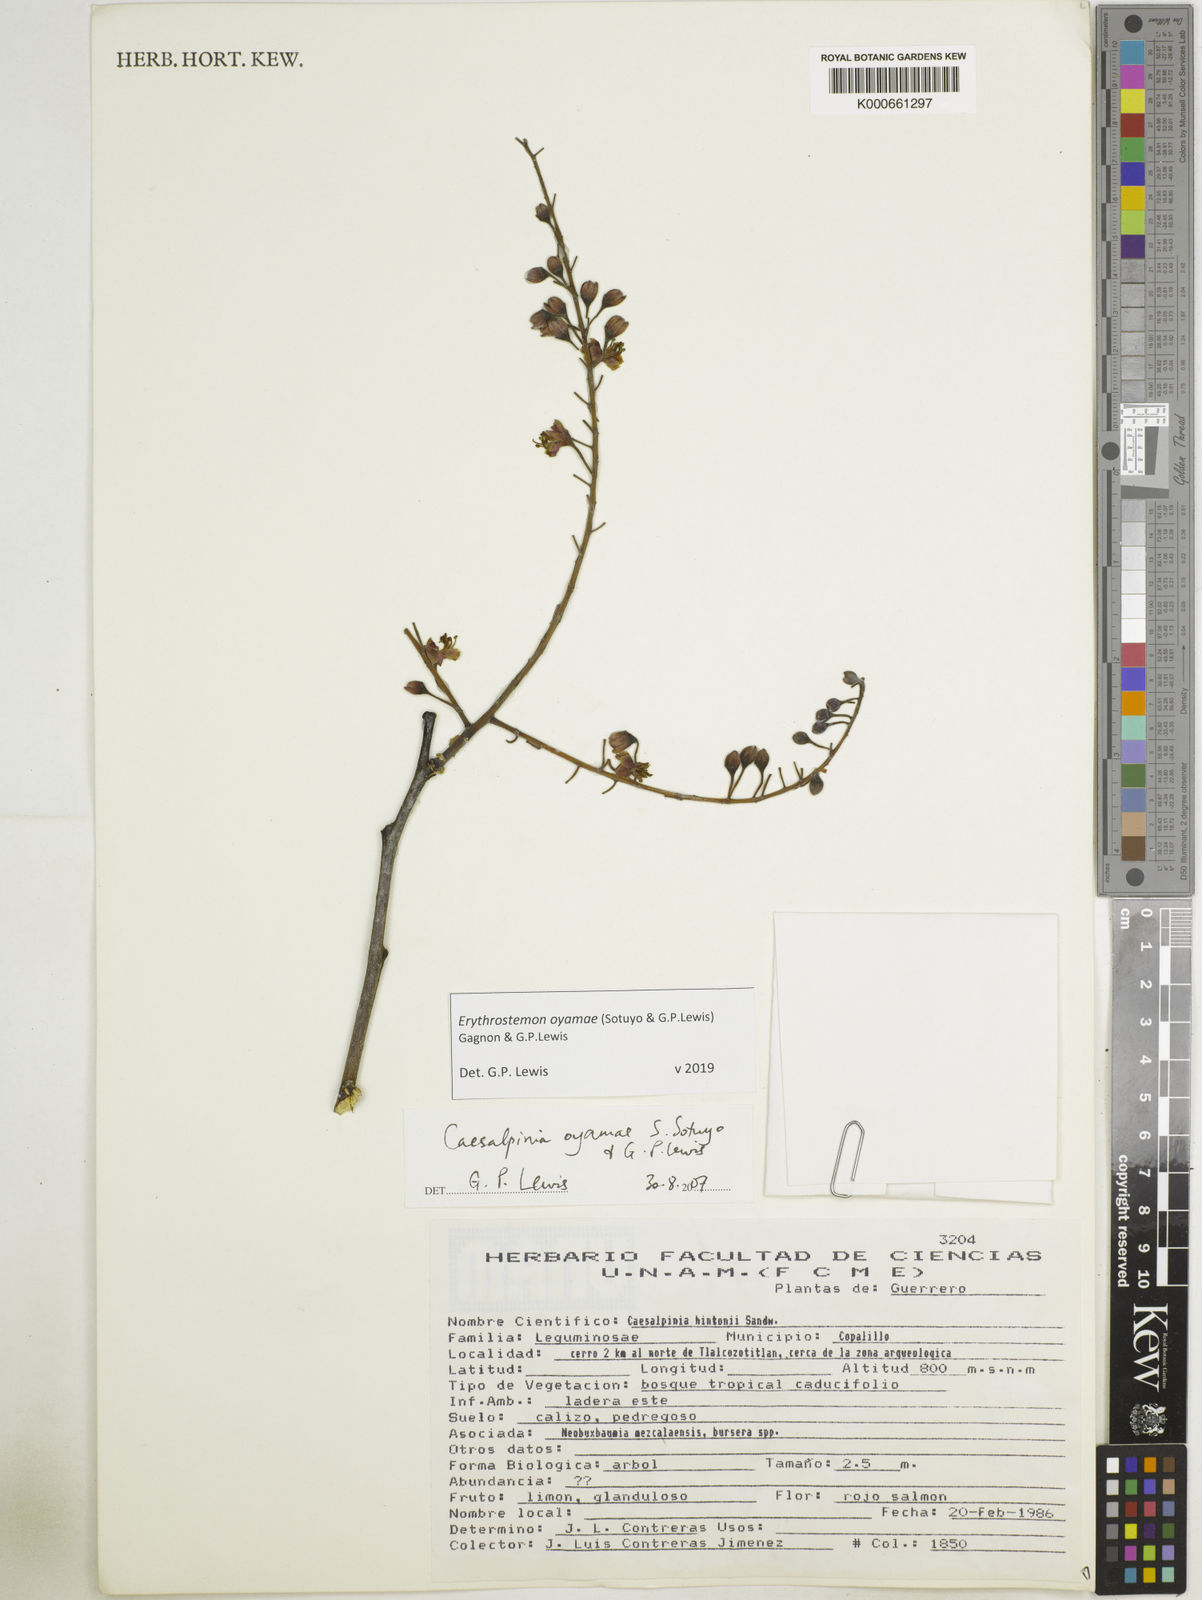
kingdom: Plantae
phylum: Tracheophyta
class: Magnoliopsida
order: Fabales
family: Fabaceae
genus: Erythrostemon
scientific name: Erythrostemon oyamae
